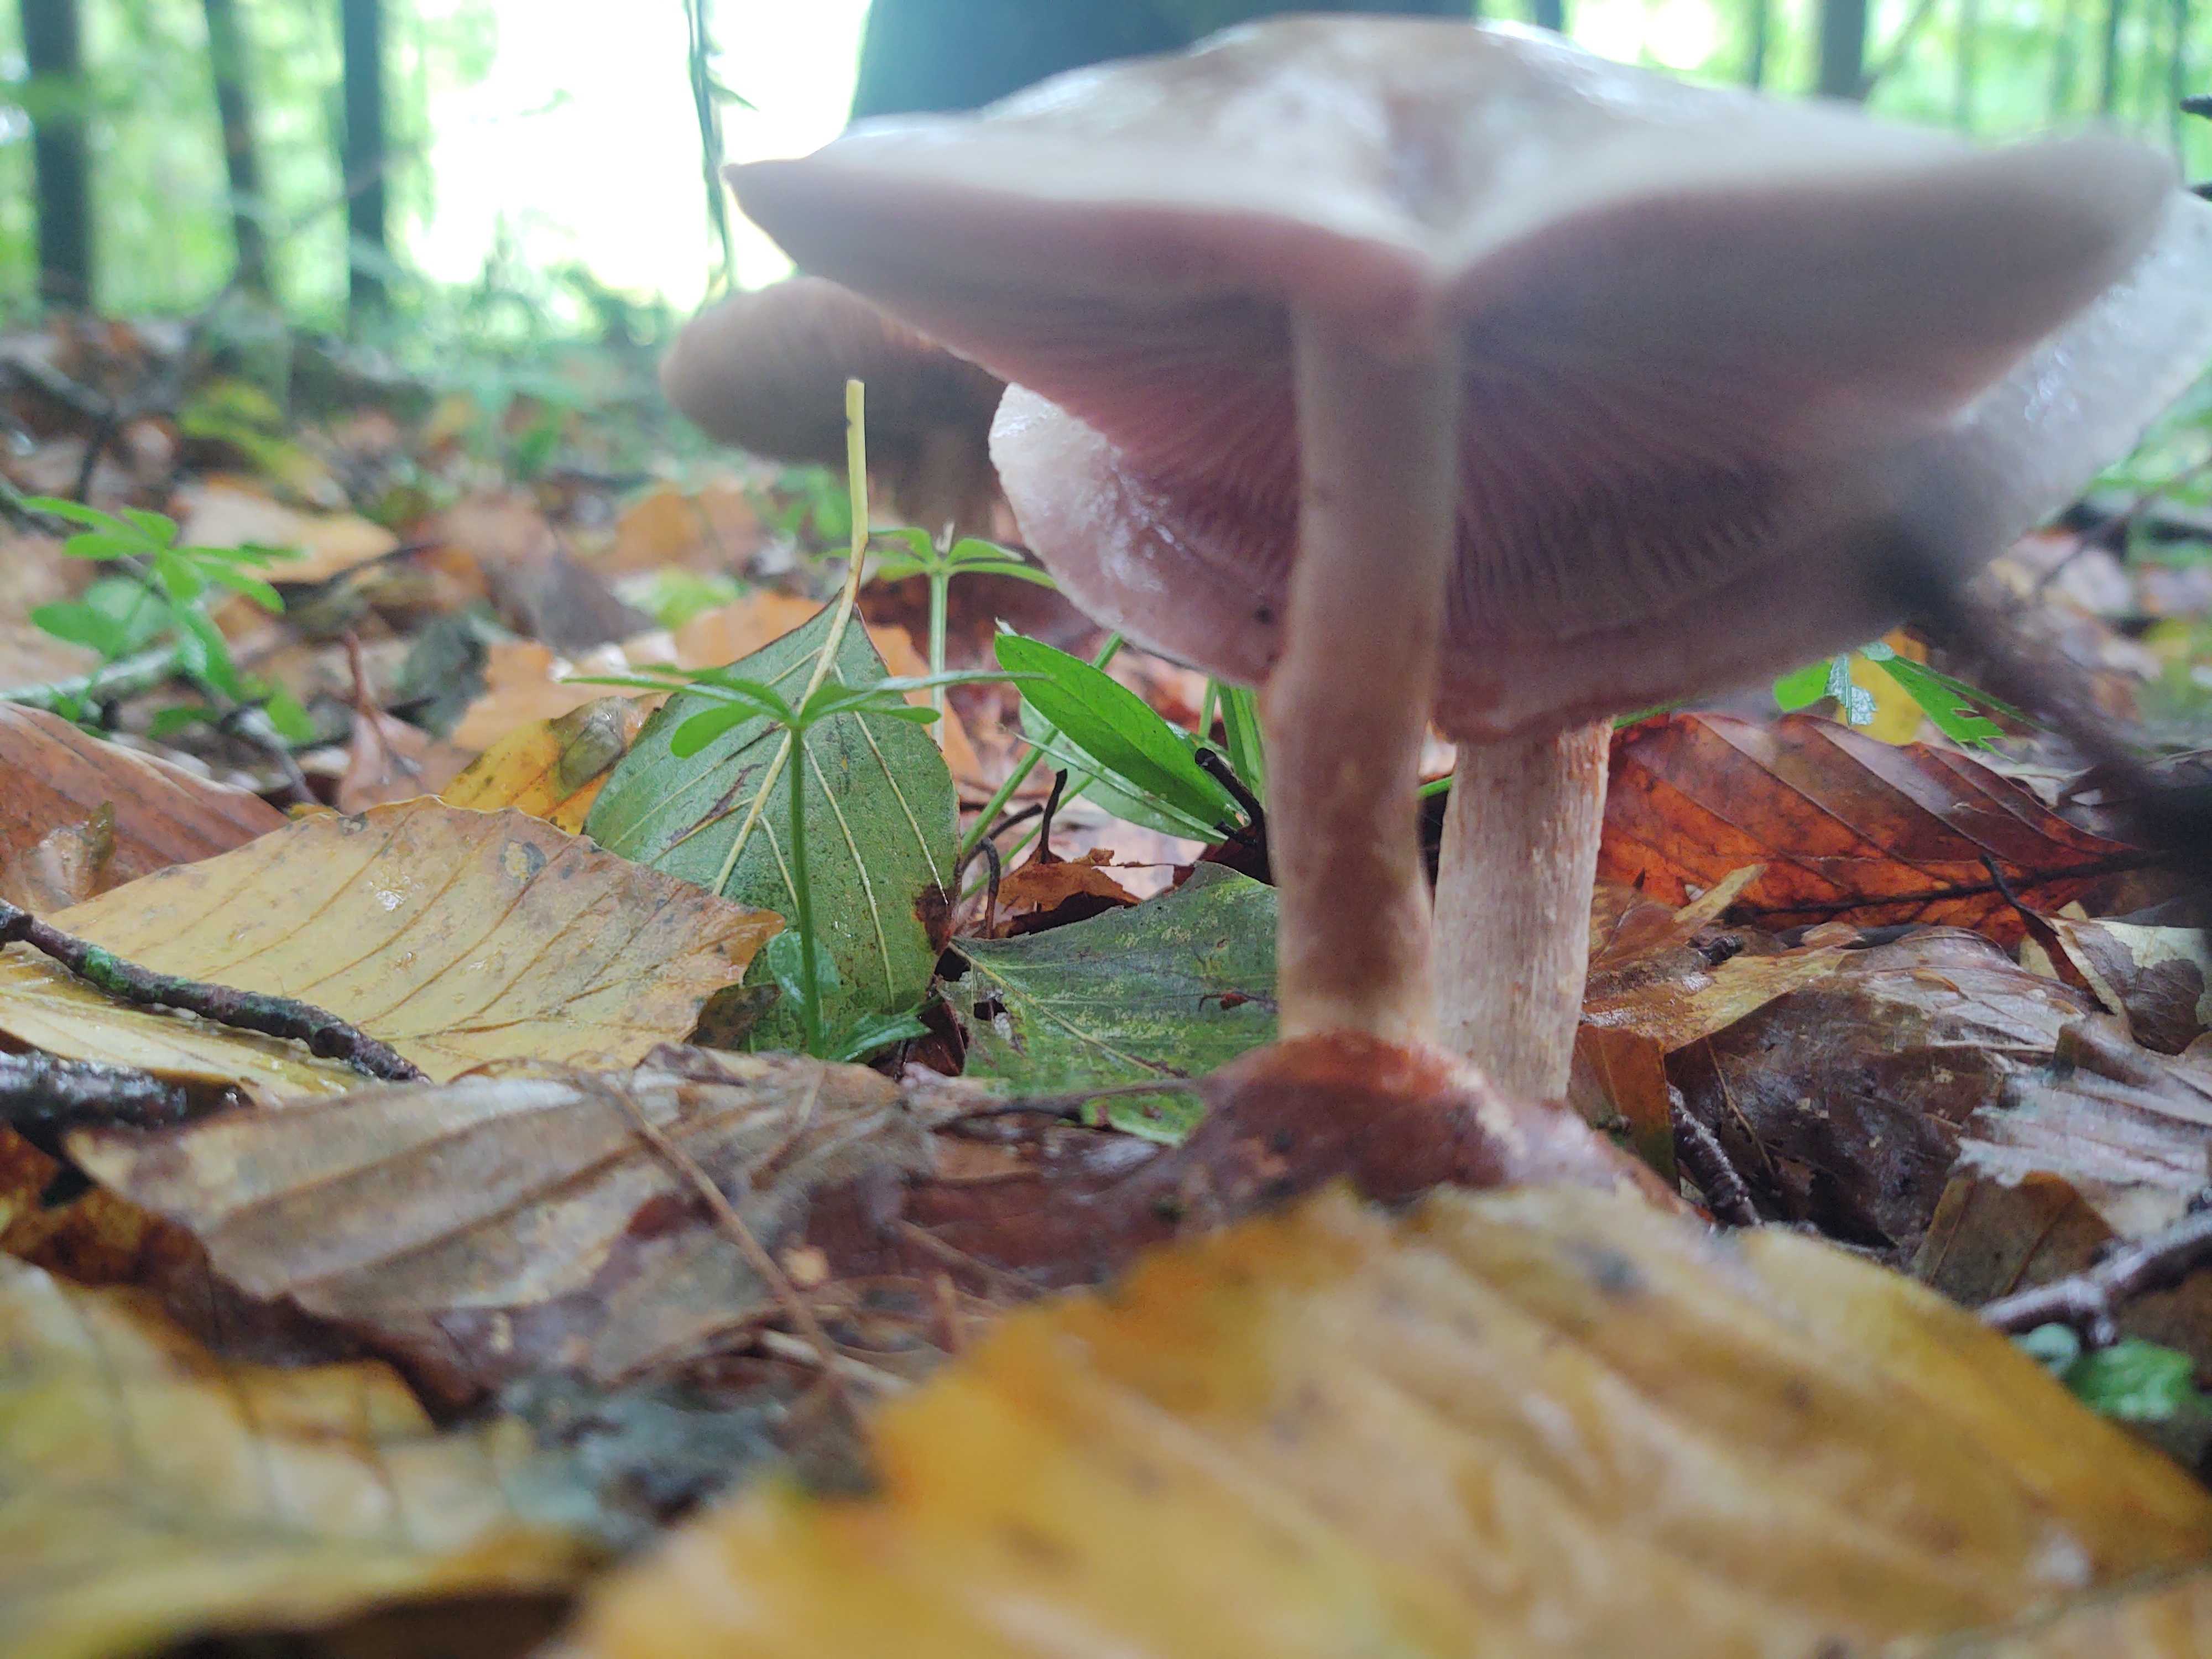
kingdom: Fungi
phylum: Basidiomycota
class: Agaricomycetes
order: Agaricales
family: Mycenaceae
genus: Mycena
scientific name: Mycena
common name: huesvamp
